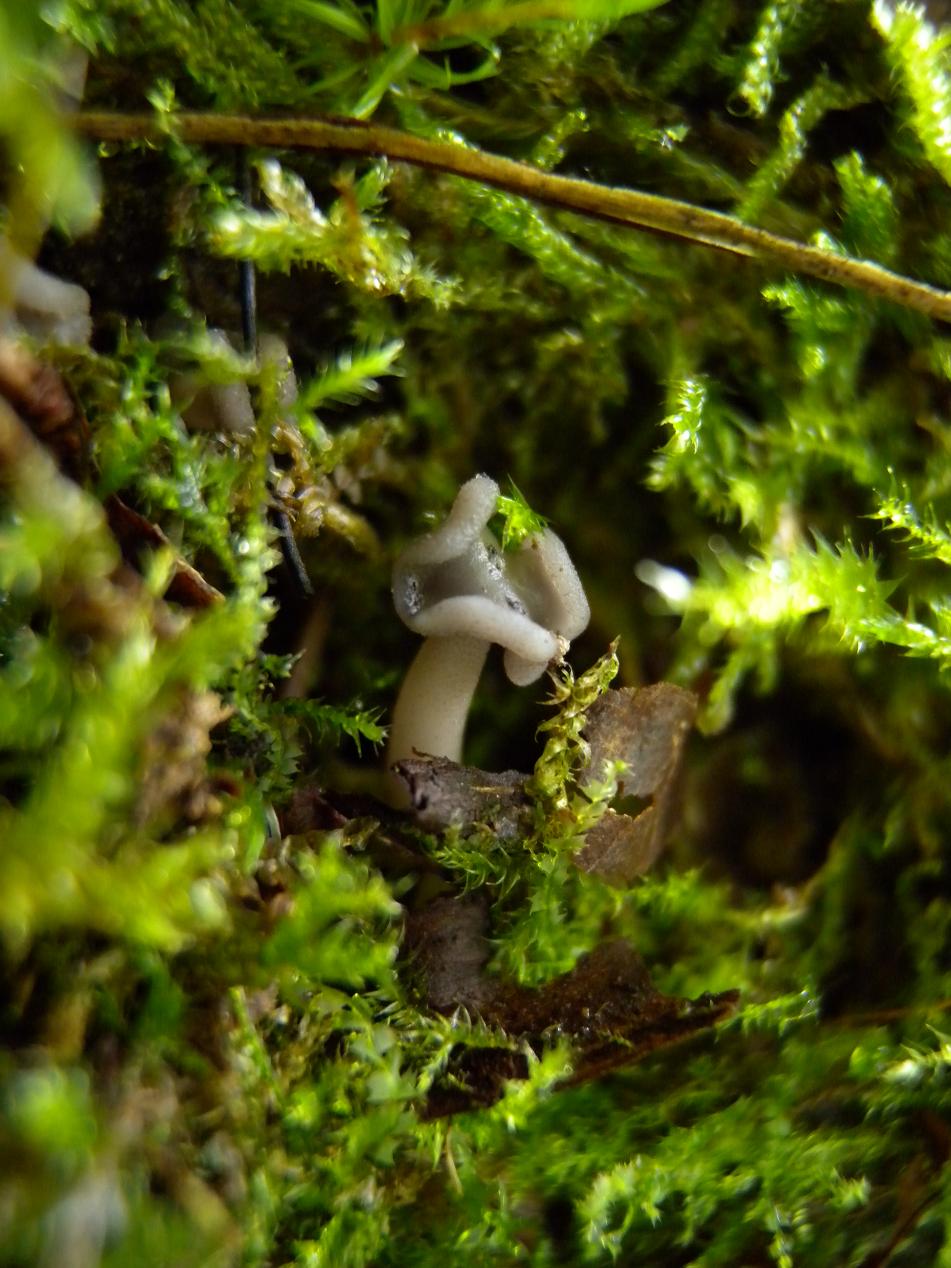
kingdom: Fungi
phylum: Ascomycota
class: Pezizomycetes
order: Pezizales
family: Helvellaceae
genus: Helvella
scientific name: Helvella sublicia
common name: saddel-foldhat
